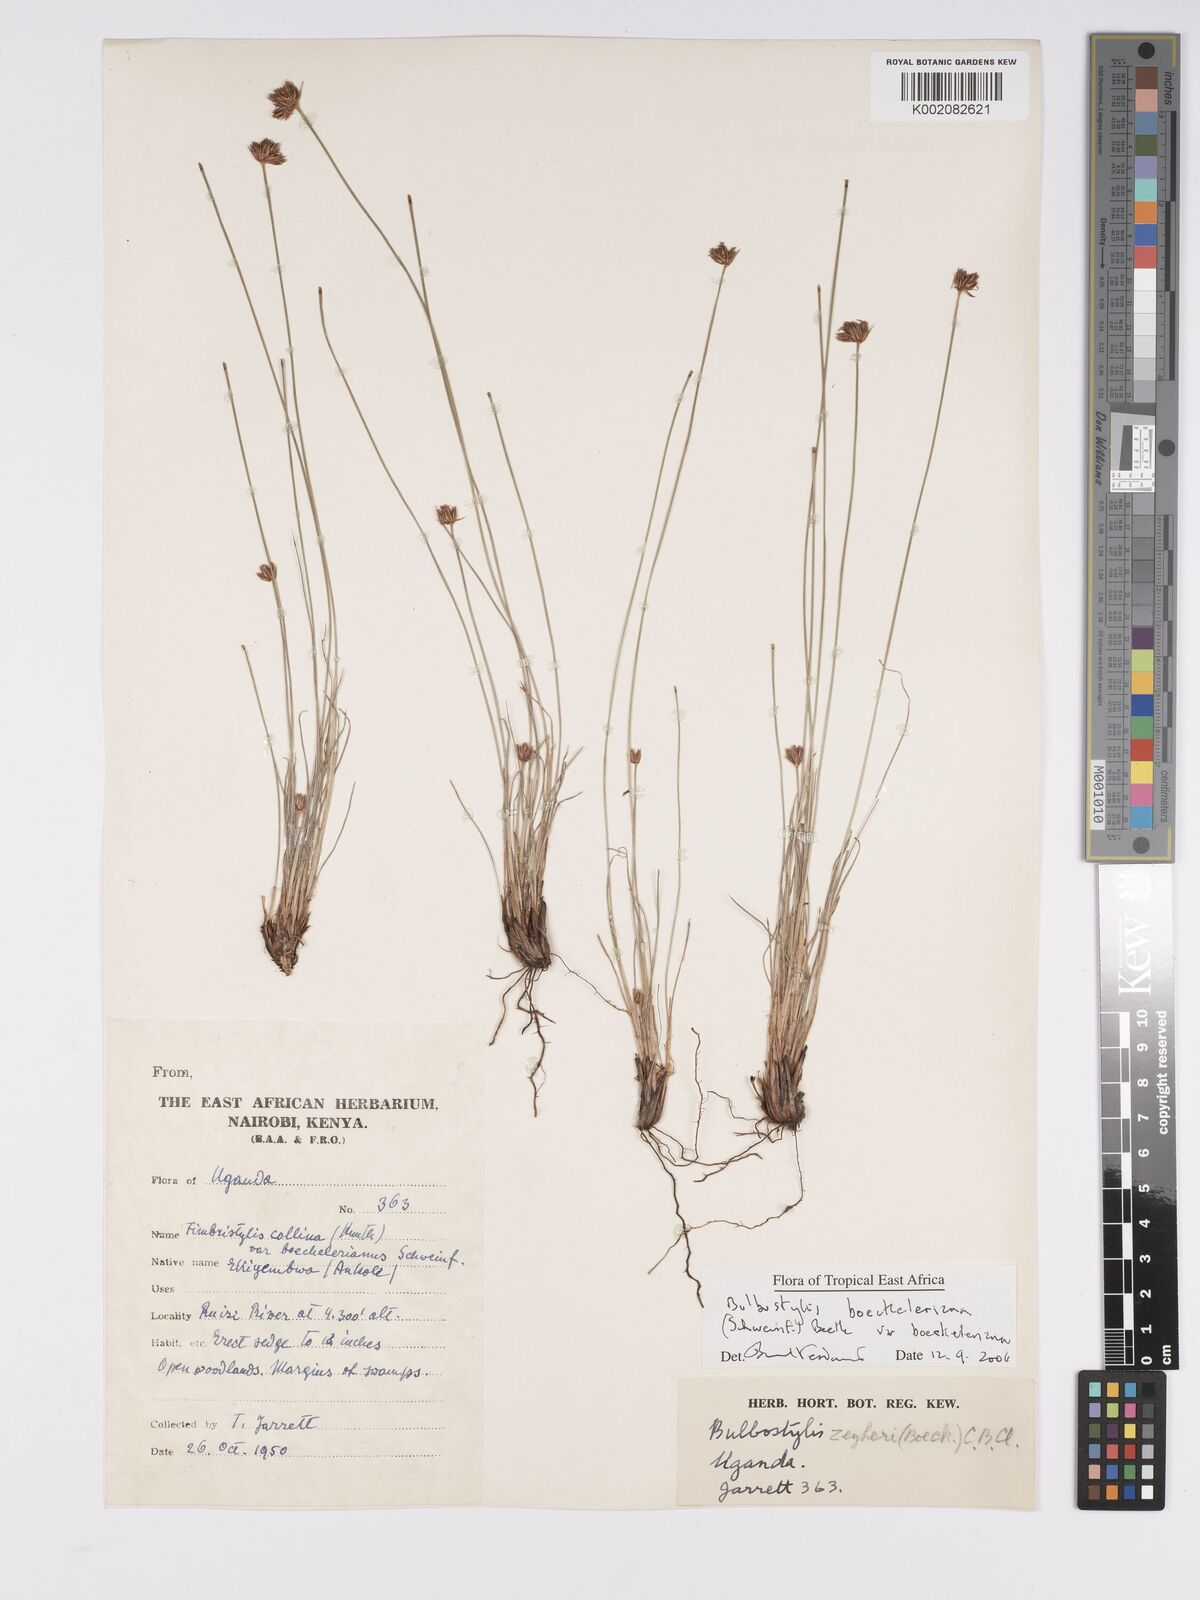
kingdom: Plantae
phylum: Tracheophyta
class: Liliopsida
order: Poales
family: Cyperaceae
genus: Bulbostylis
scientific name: Bulbostylis boeckeleriana
